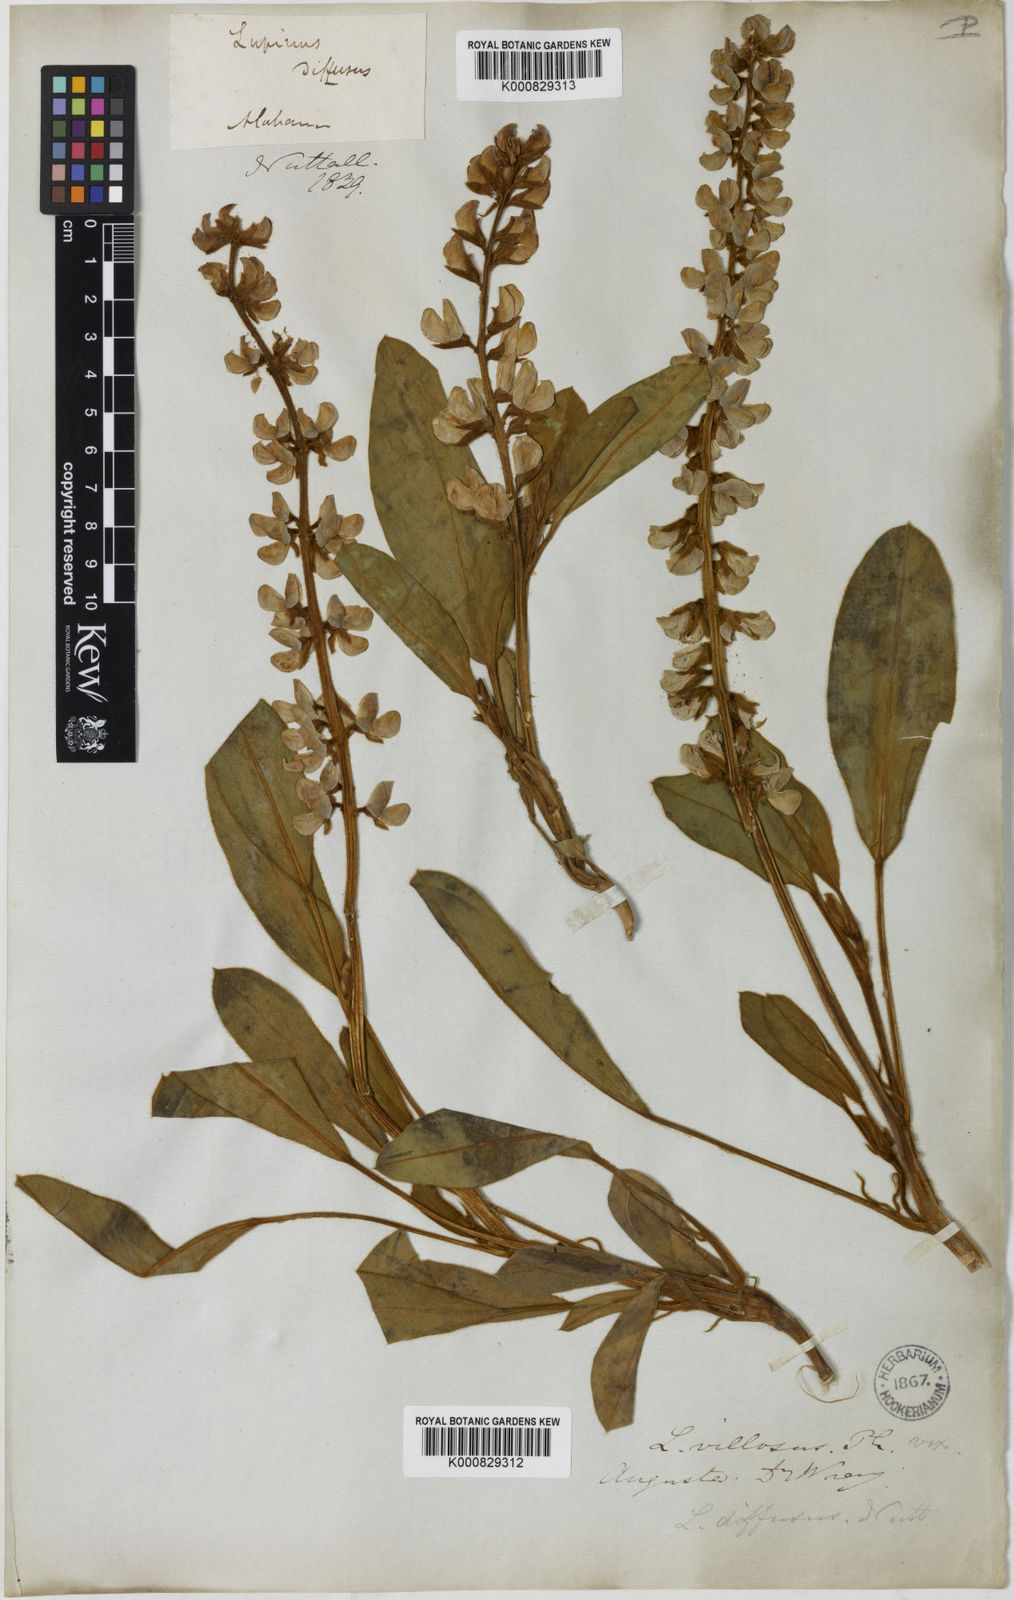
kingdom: Plantae
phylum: Tracheophyta
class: Magnoliopsida
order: Fabales
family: Fabaceae
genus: Lupinus
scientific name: Lupinus diffusus
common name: Oak ridge lupine
